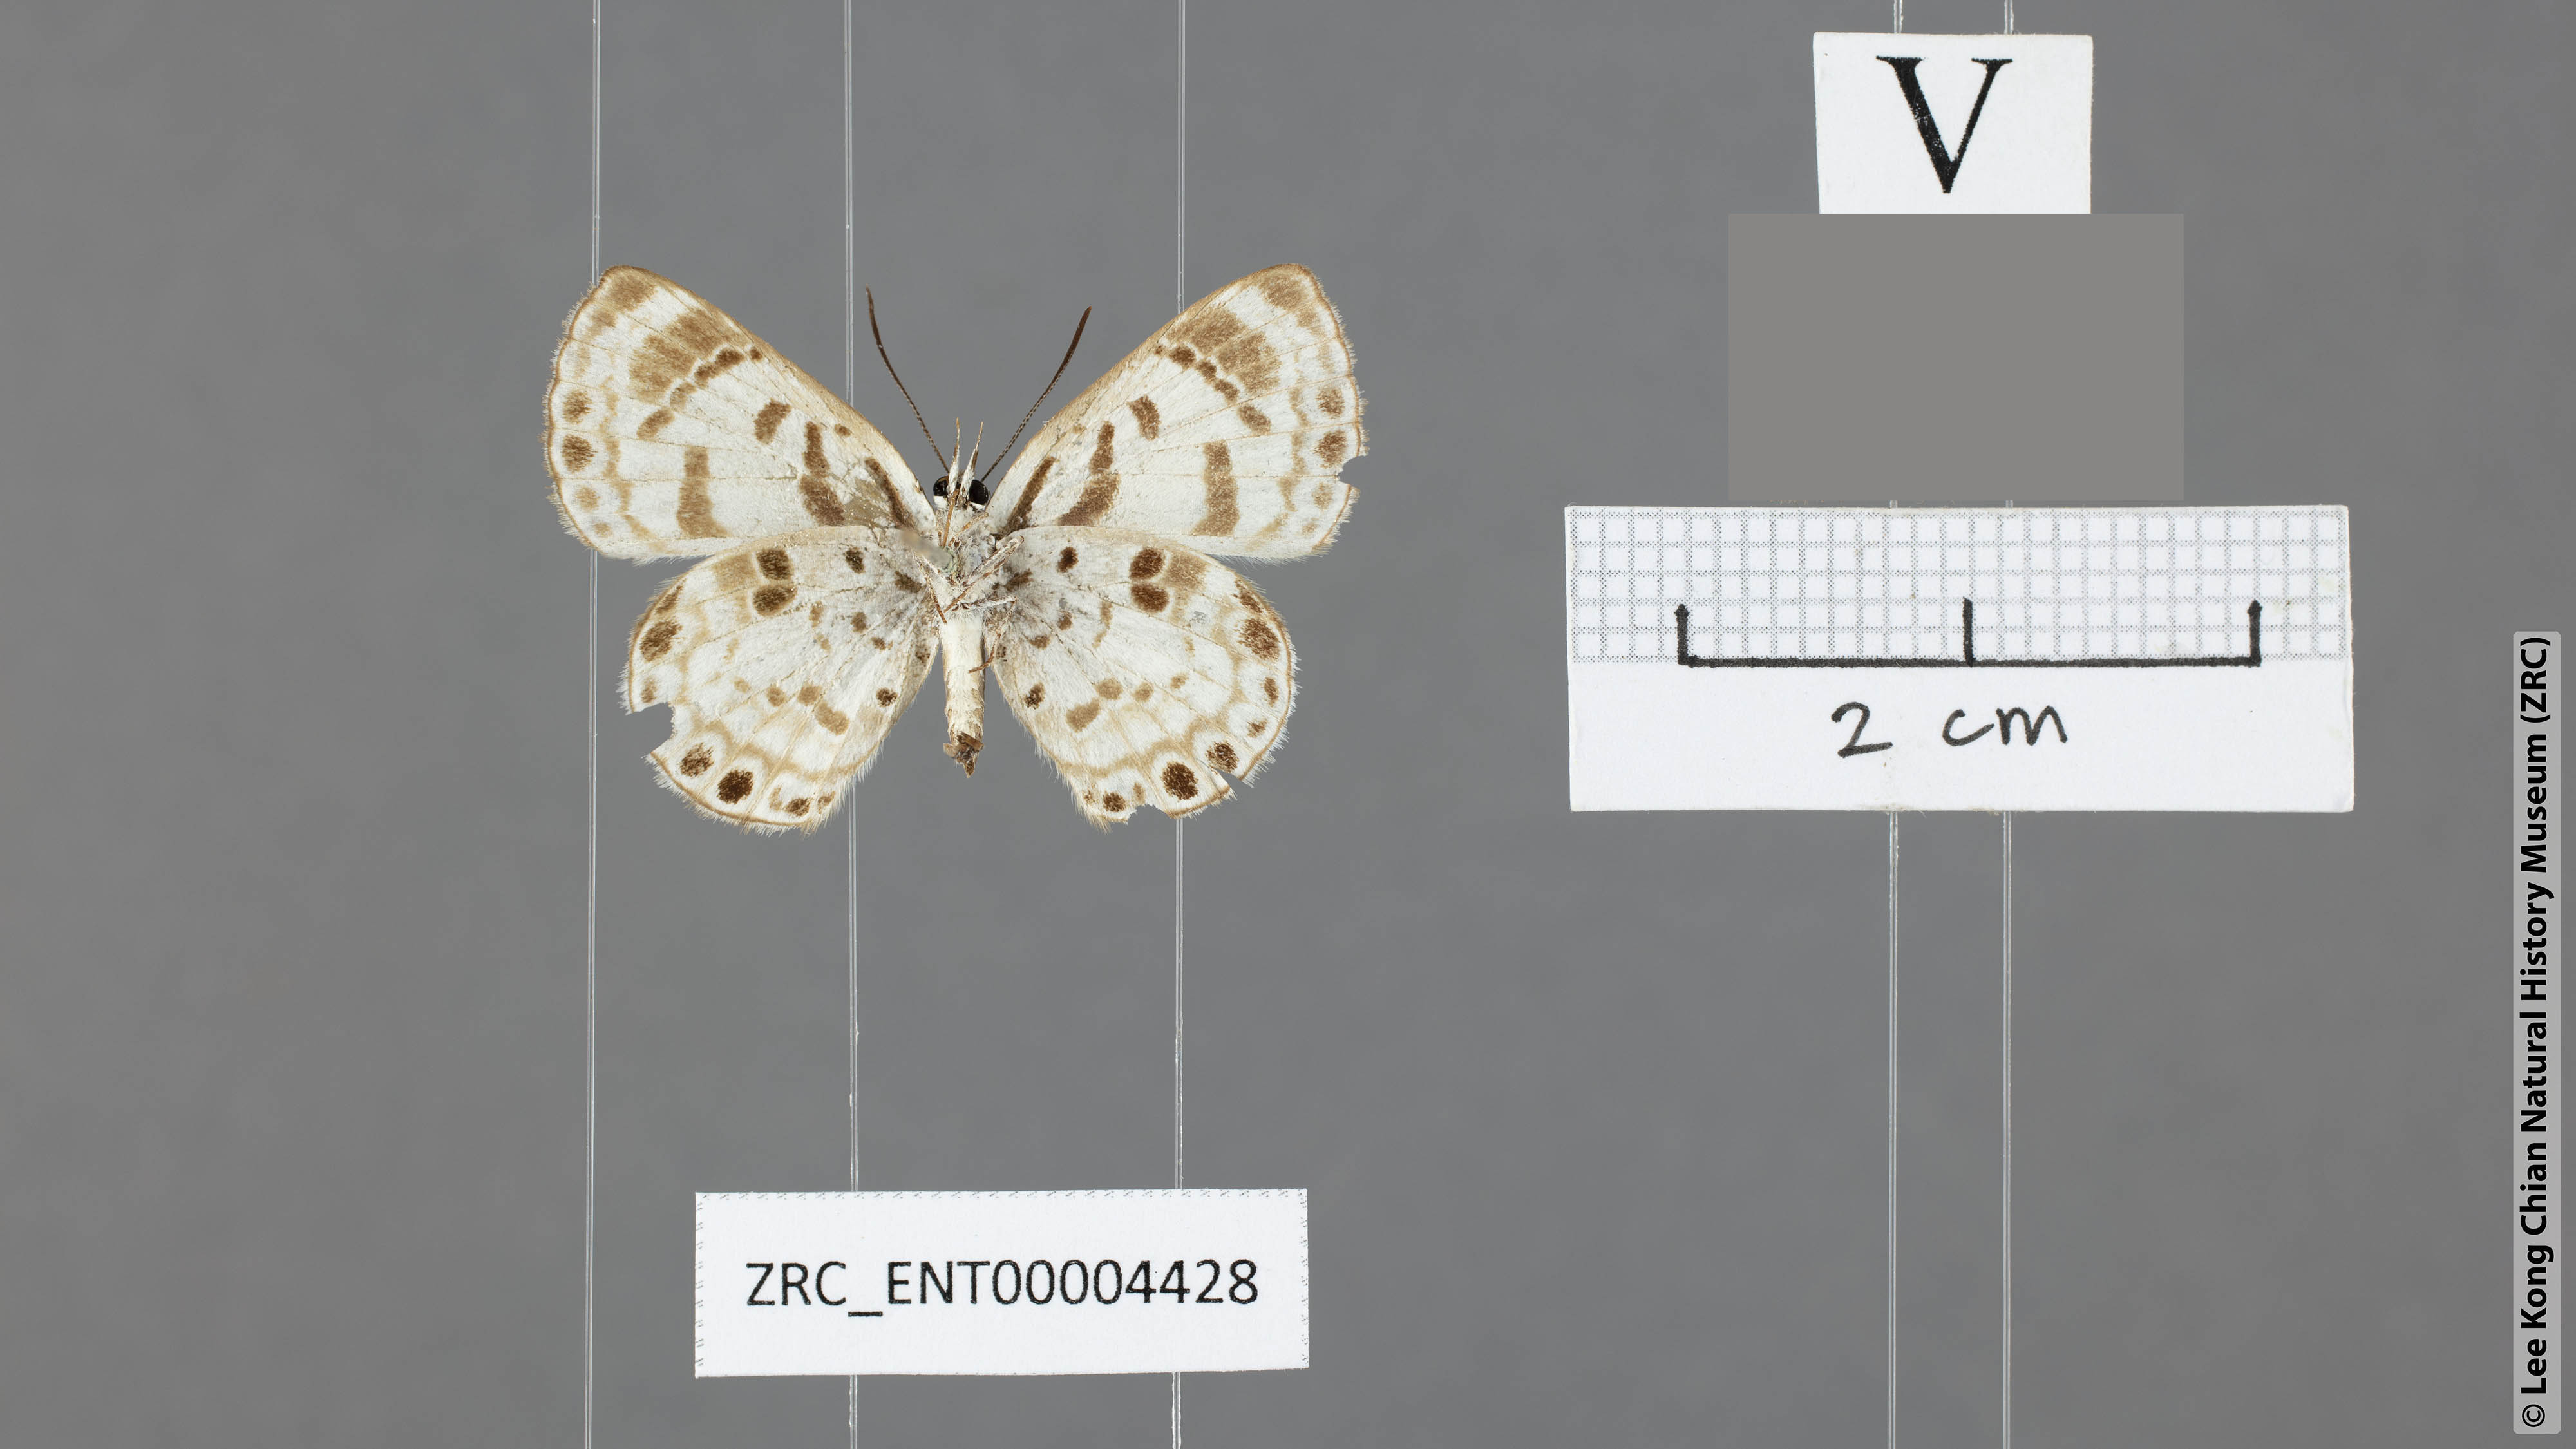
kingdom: Animalia
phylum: Arthropoda
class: Insecta
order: Lepidoptera
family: Lycaenidae
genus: Niphanda
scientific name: Niphanda cymbia
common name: Small pointed pierrot
